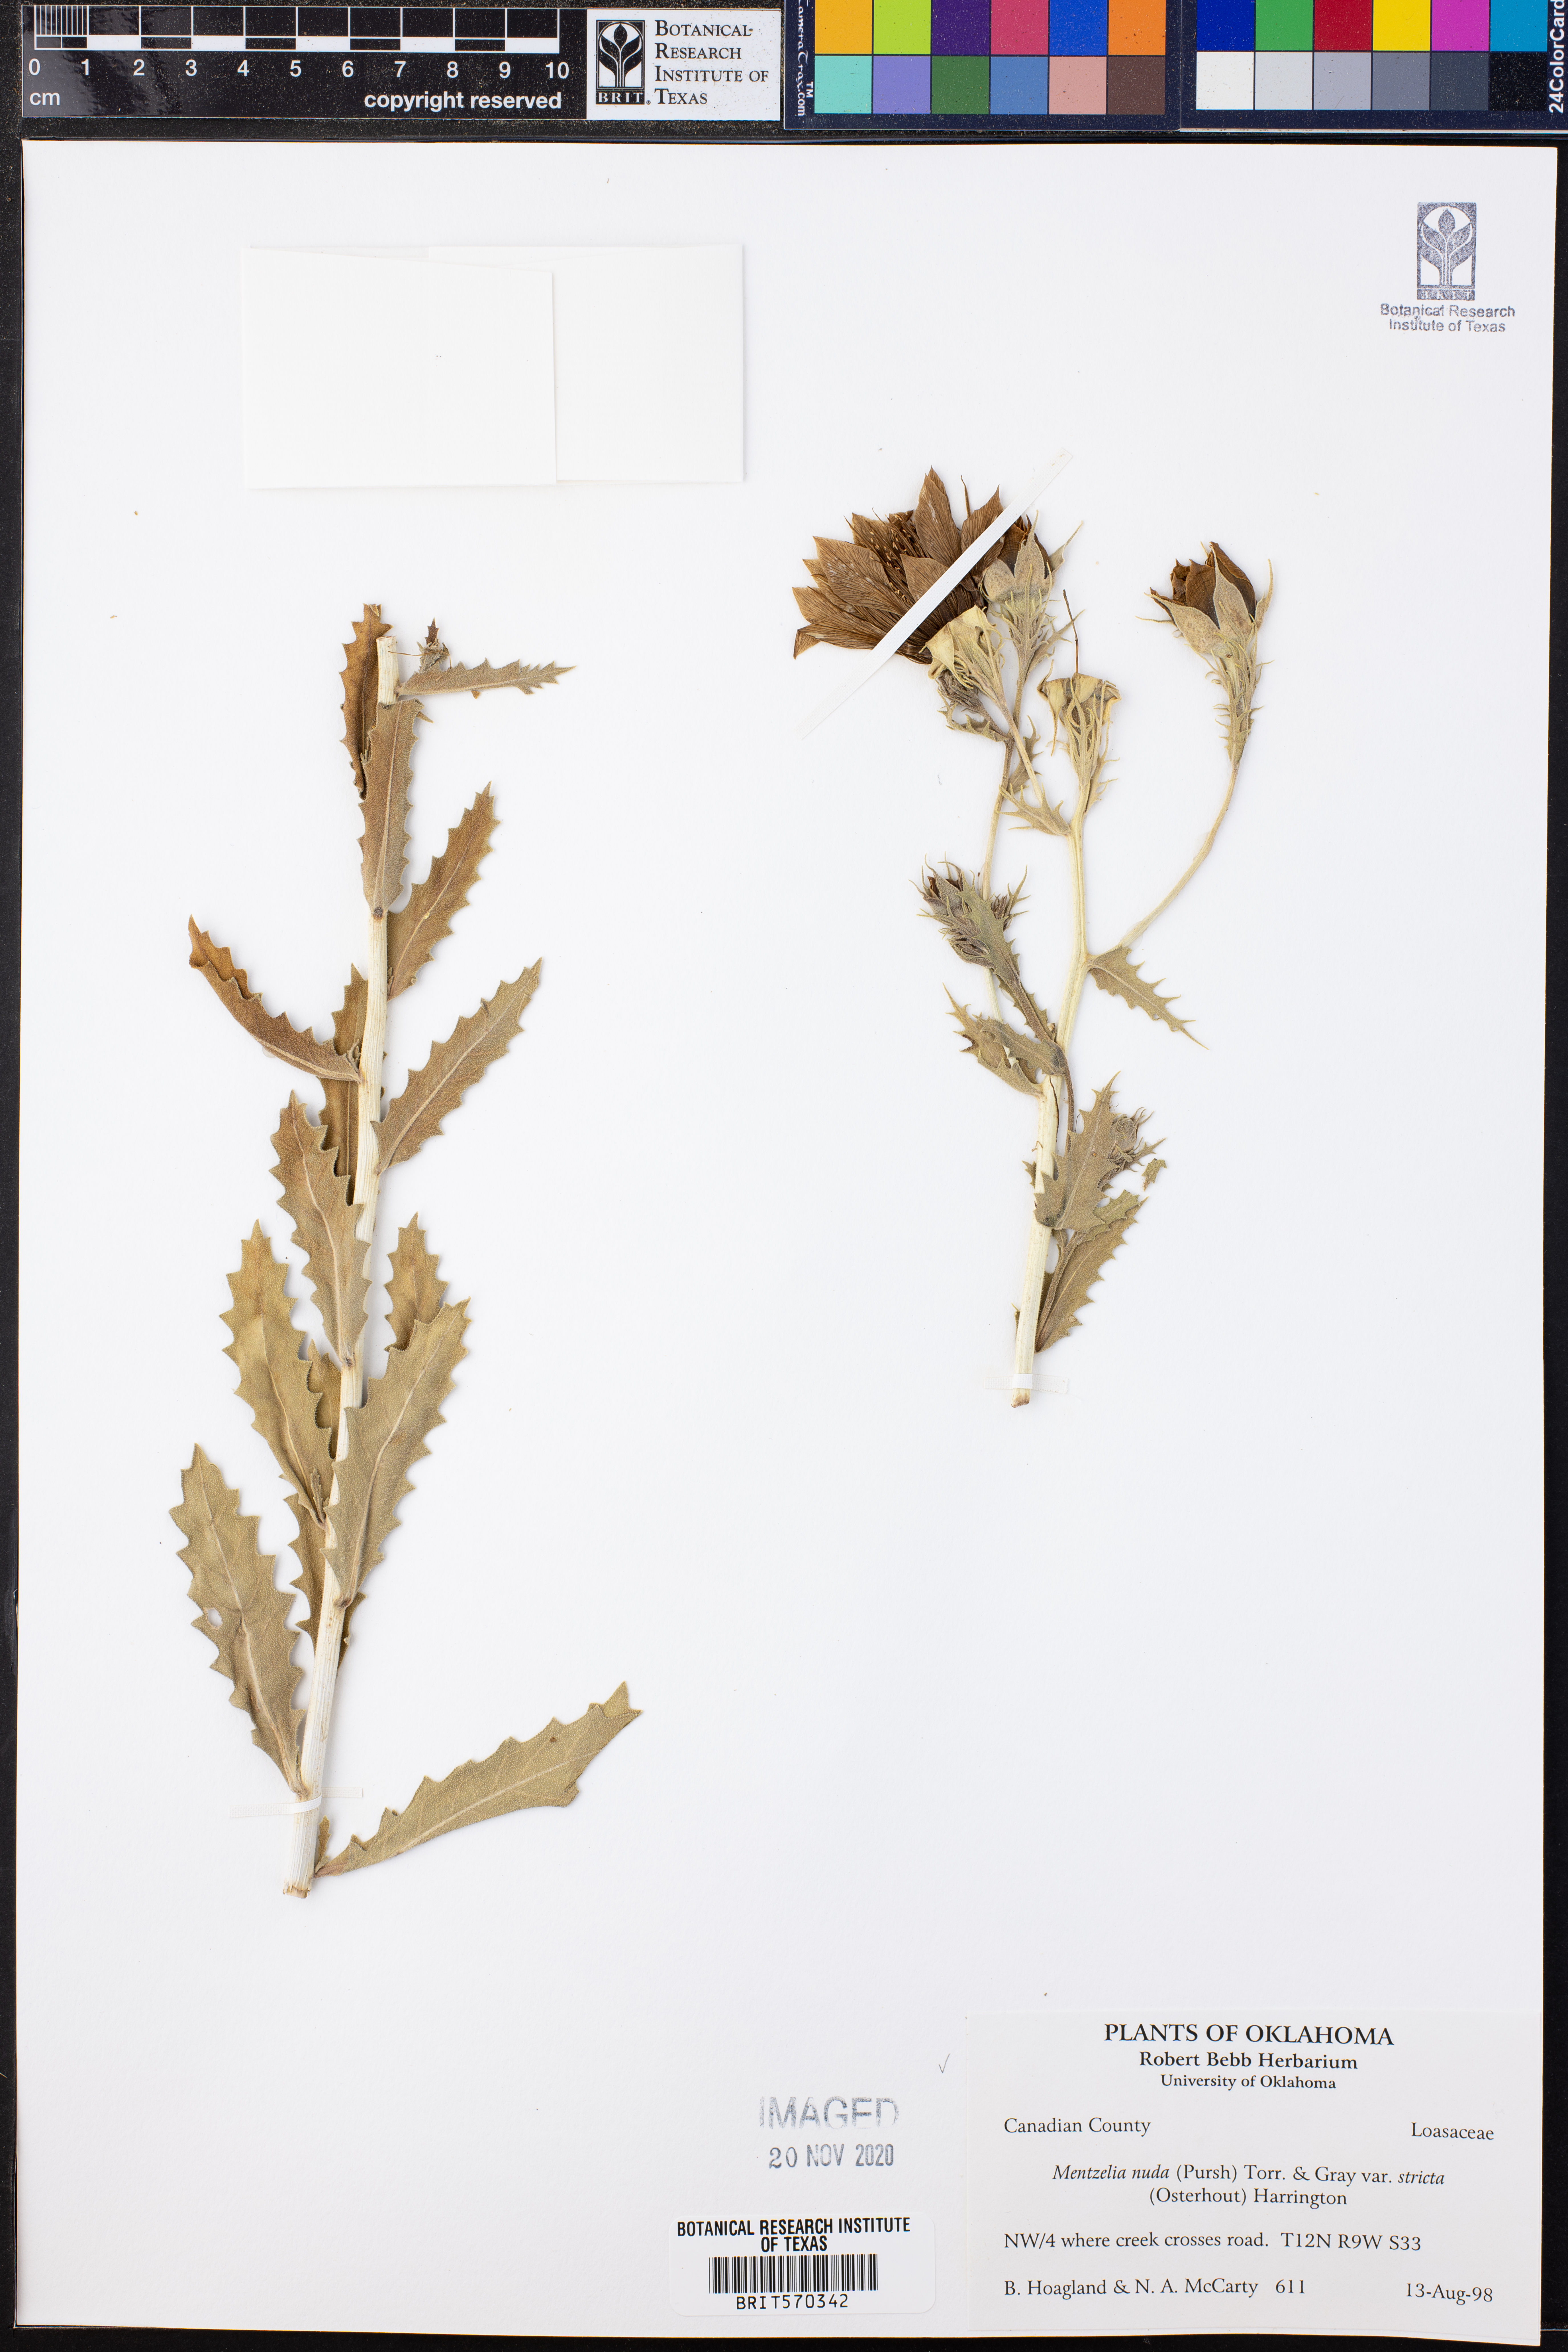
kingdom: Plantae
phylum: Tracheophyta
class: Magnoliopsida
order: Cornales
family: Loasaceae
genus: Mentzelia
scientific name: Mentzelia nuda
